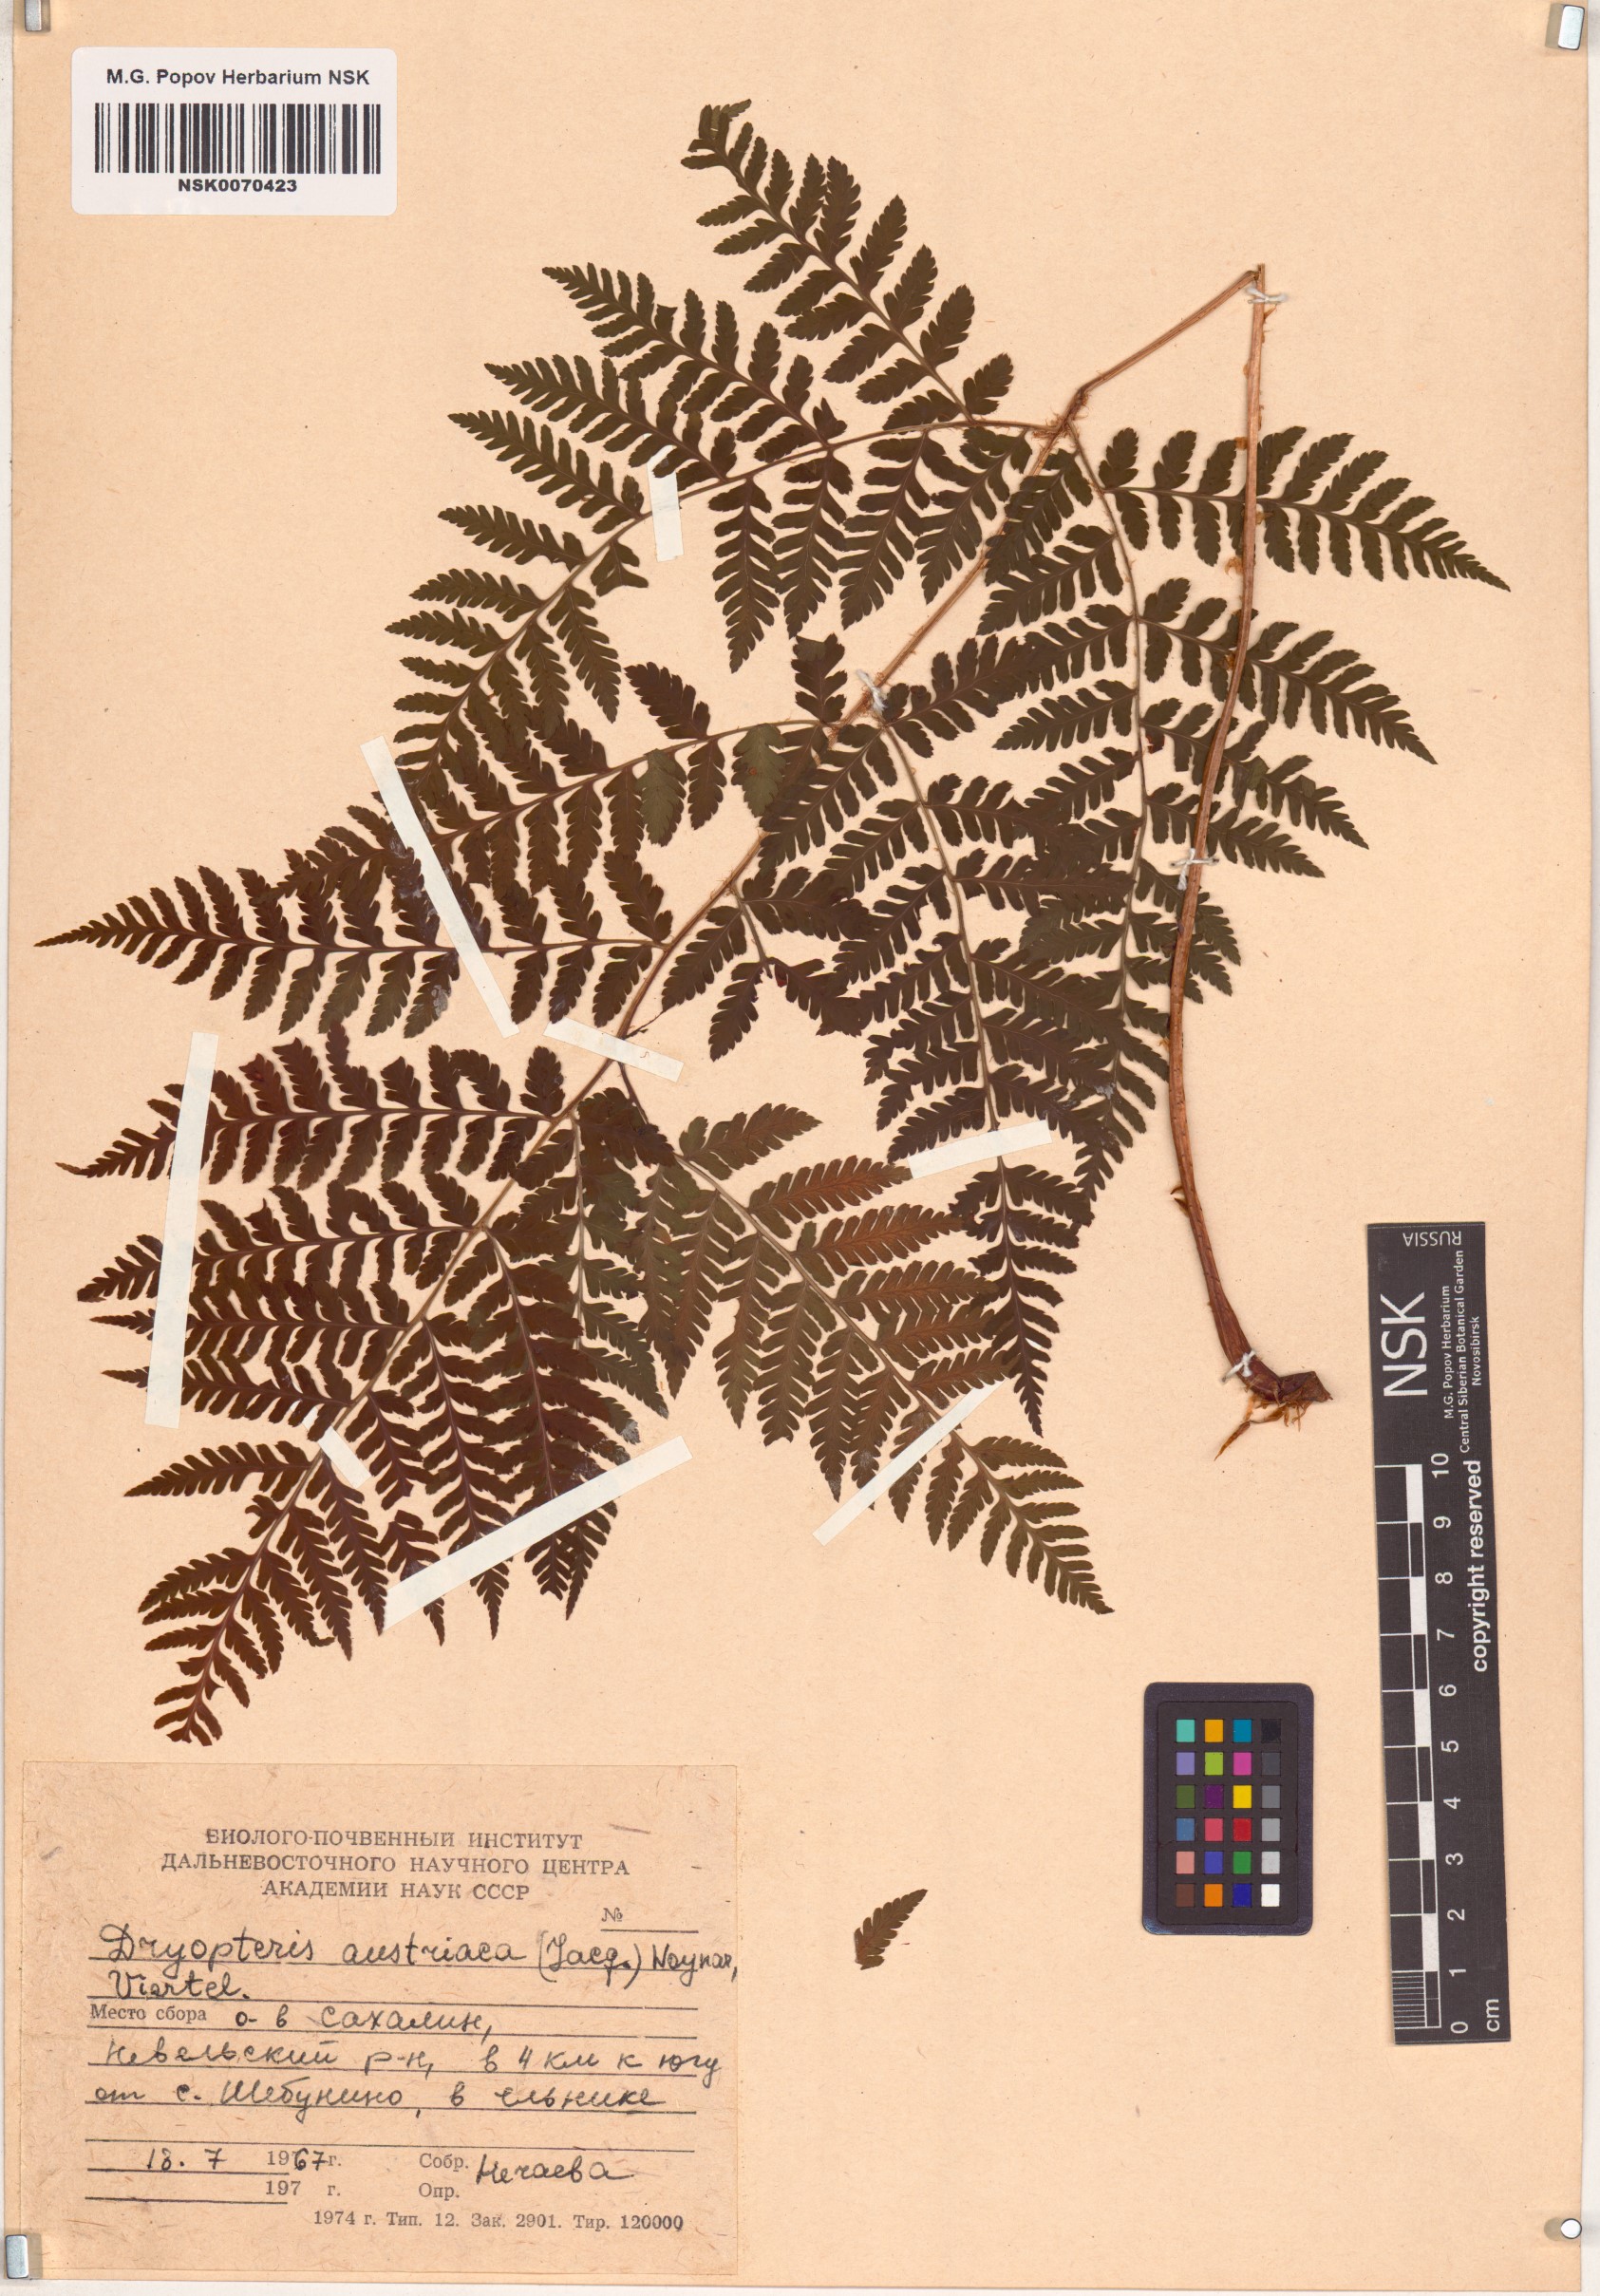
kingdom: Plantae
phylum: Tracheophyta
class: Polypodiopsida
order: Polypodiales
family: Dryopteridaceae
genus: Dryopteris
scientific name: Dryopteris dilatata
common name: Broad buckler-fern
